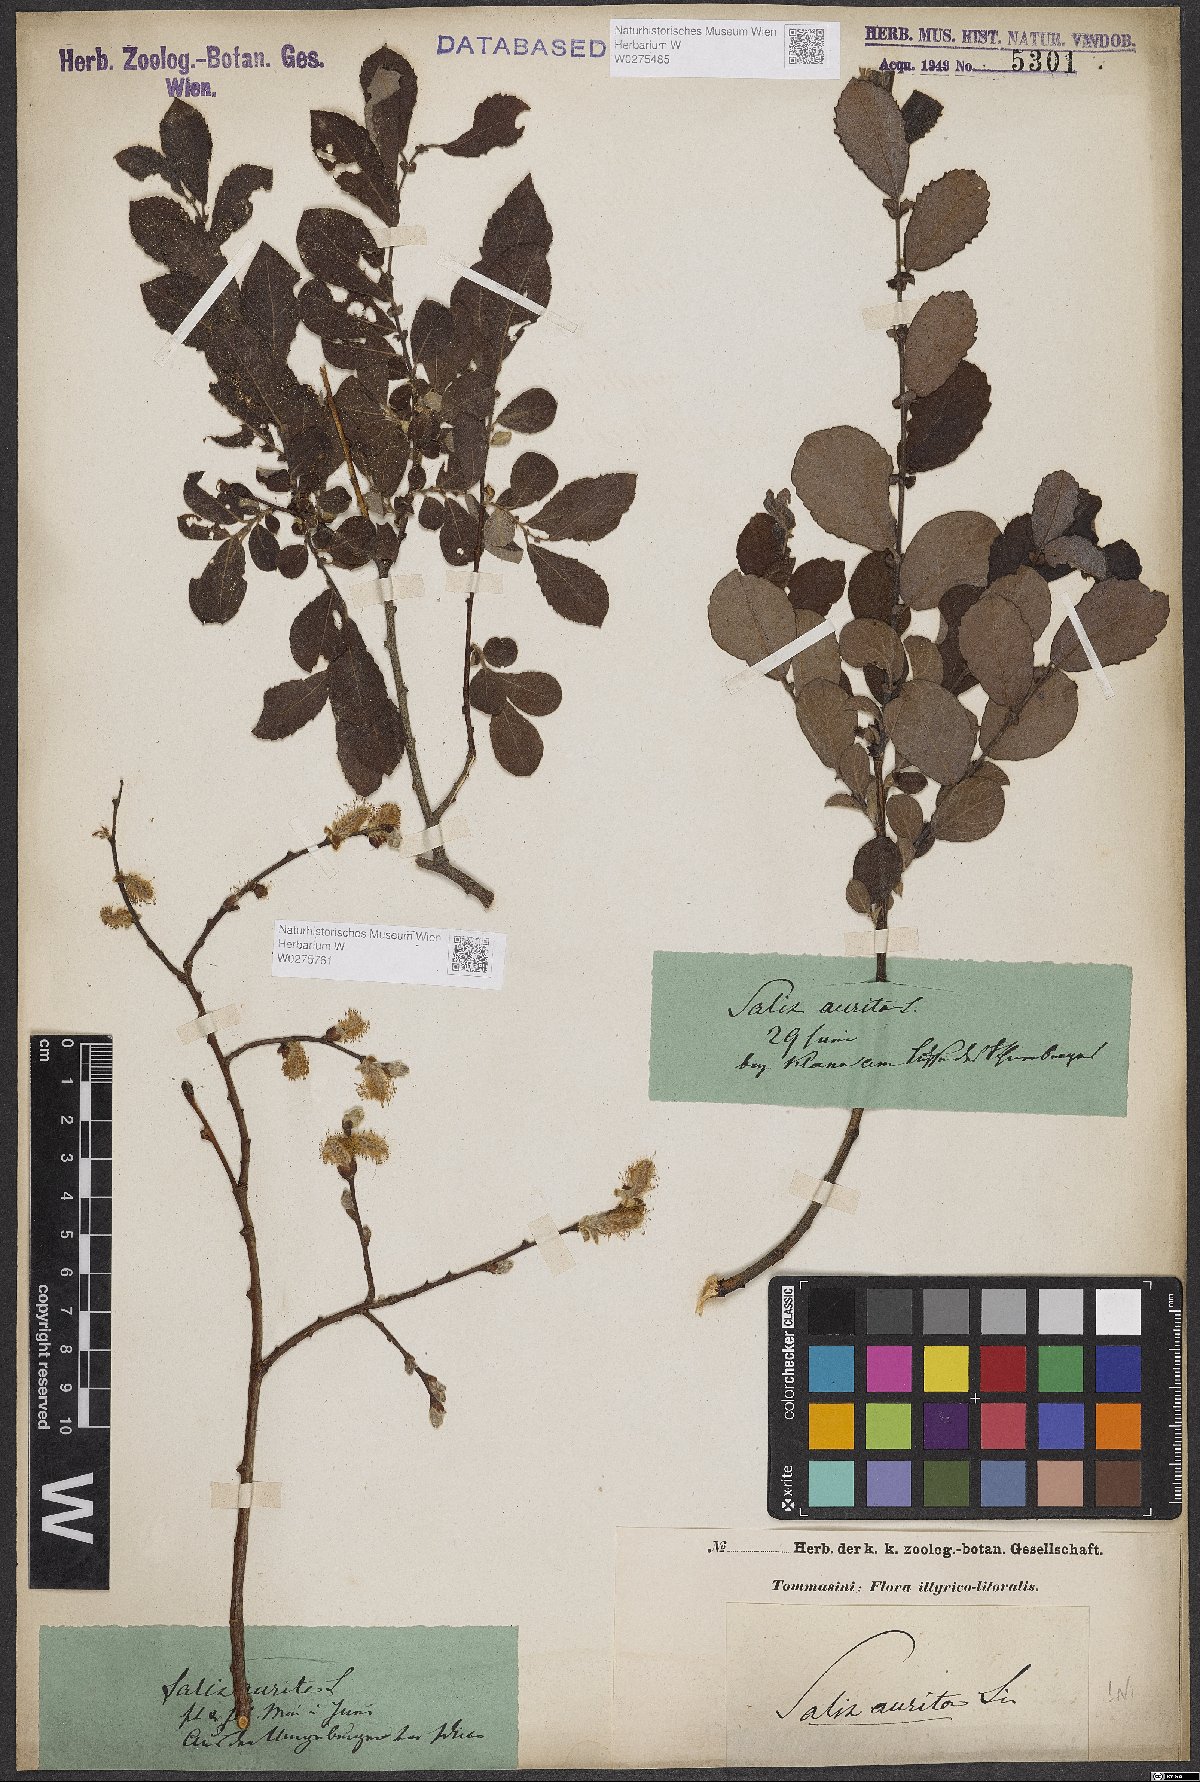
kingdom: Plantae
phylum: Tracheophyta
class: Magnoliopsida
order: Malpighiales
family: Salicaceae
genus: Salix
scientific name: Salix aurita
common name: Eared willow
